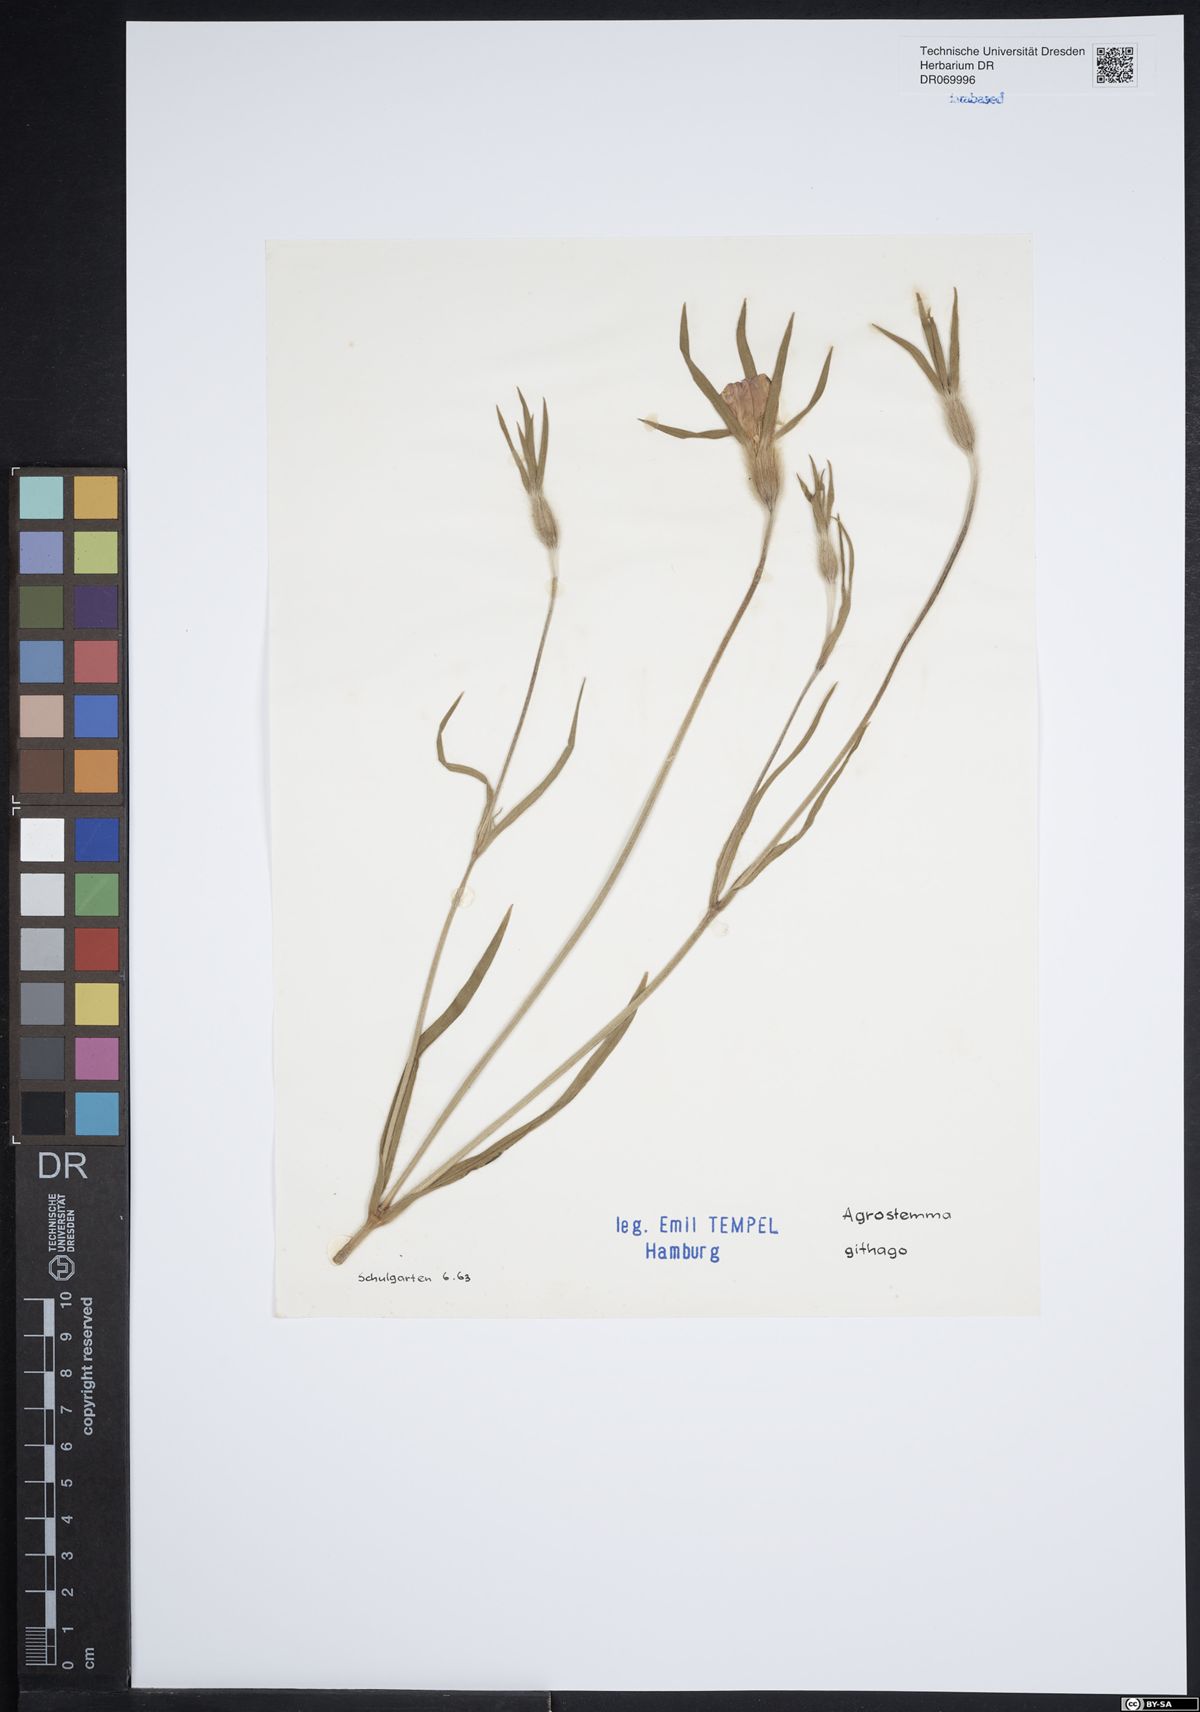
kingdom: Plantae
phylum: Tracheophyta
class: Magnoliopsida
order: Caryophyllales
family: Caryophyllaceae
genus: Agrostemma
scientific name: Agrostemma githago
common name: Common corncockle
